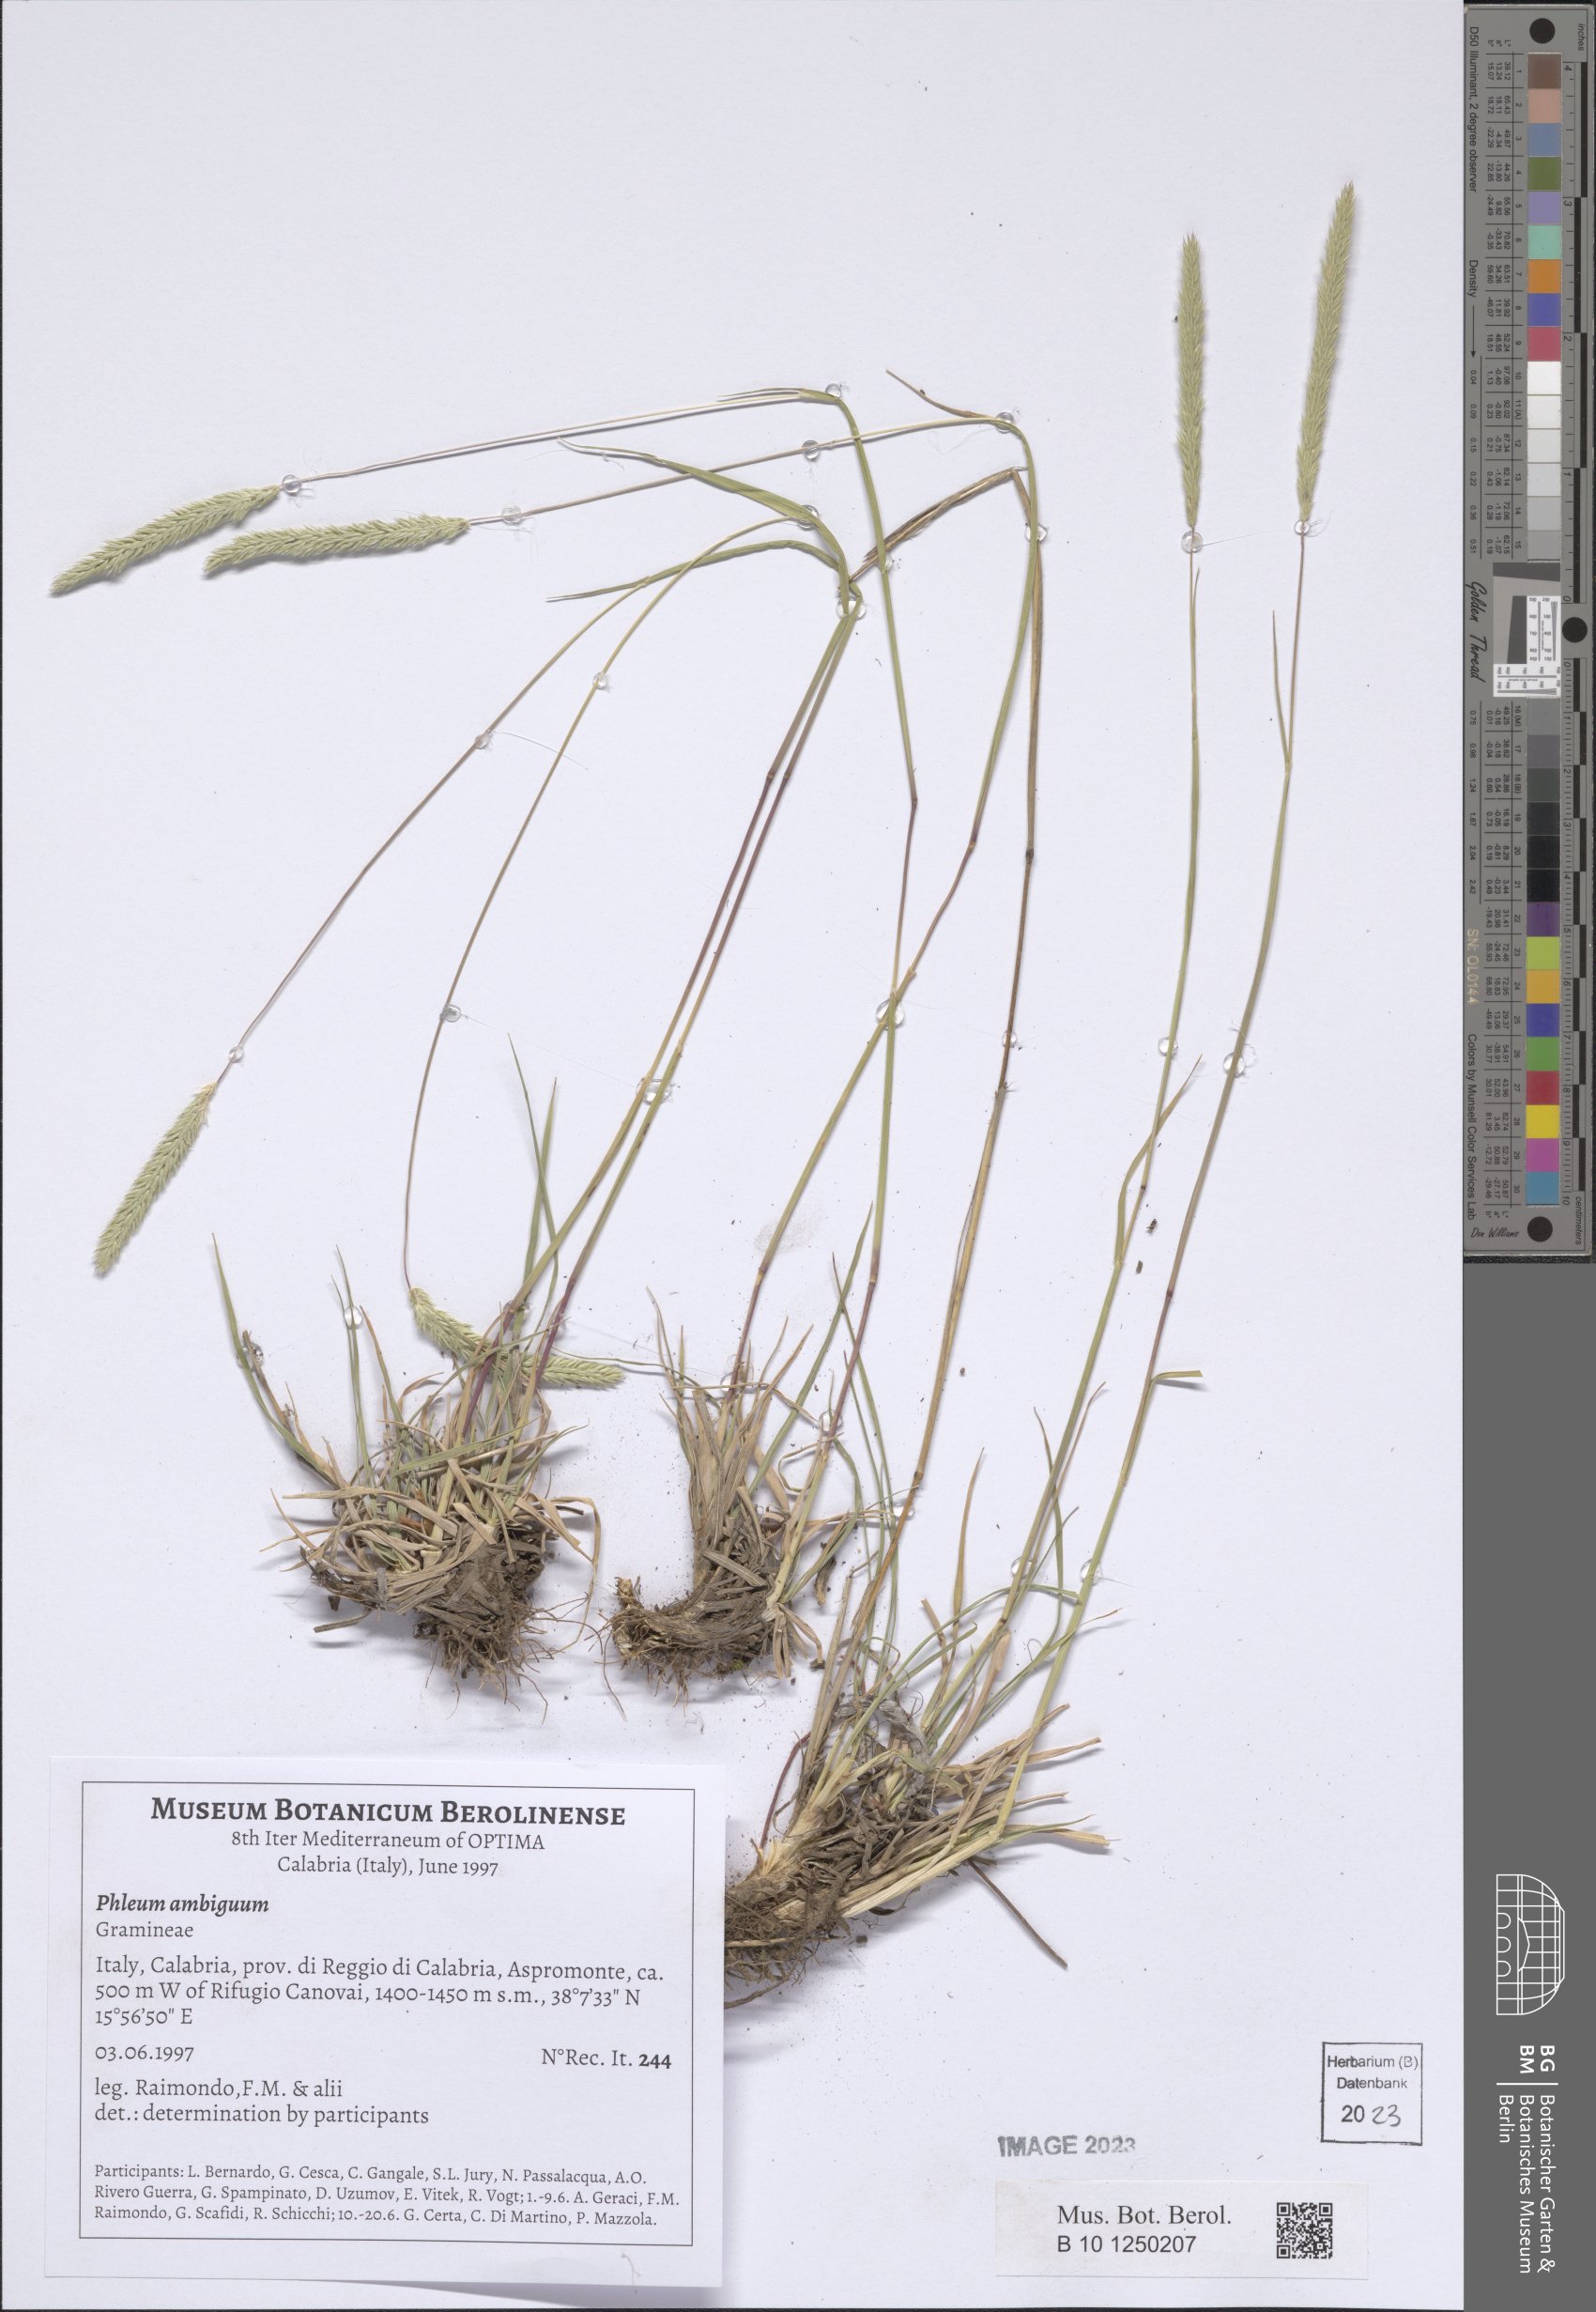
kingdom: Plantae
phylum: Tracheophyta
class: Liliopsida
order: Poales
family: Poaceae
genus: Phleum
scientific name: Phleum hirsutum
